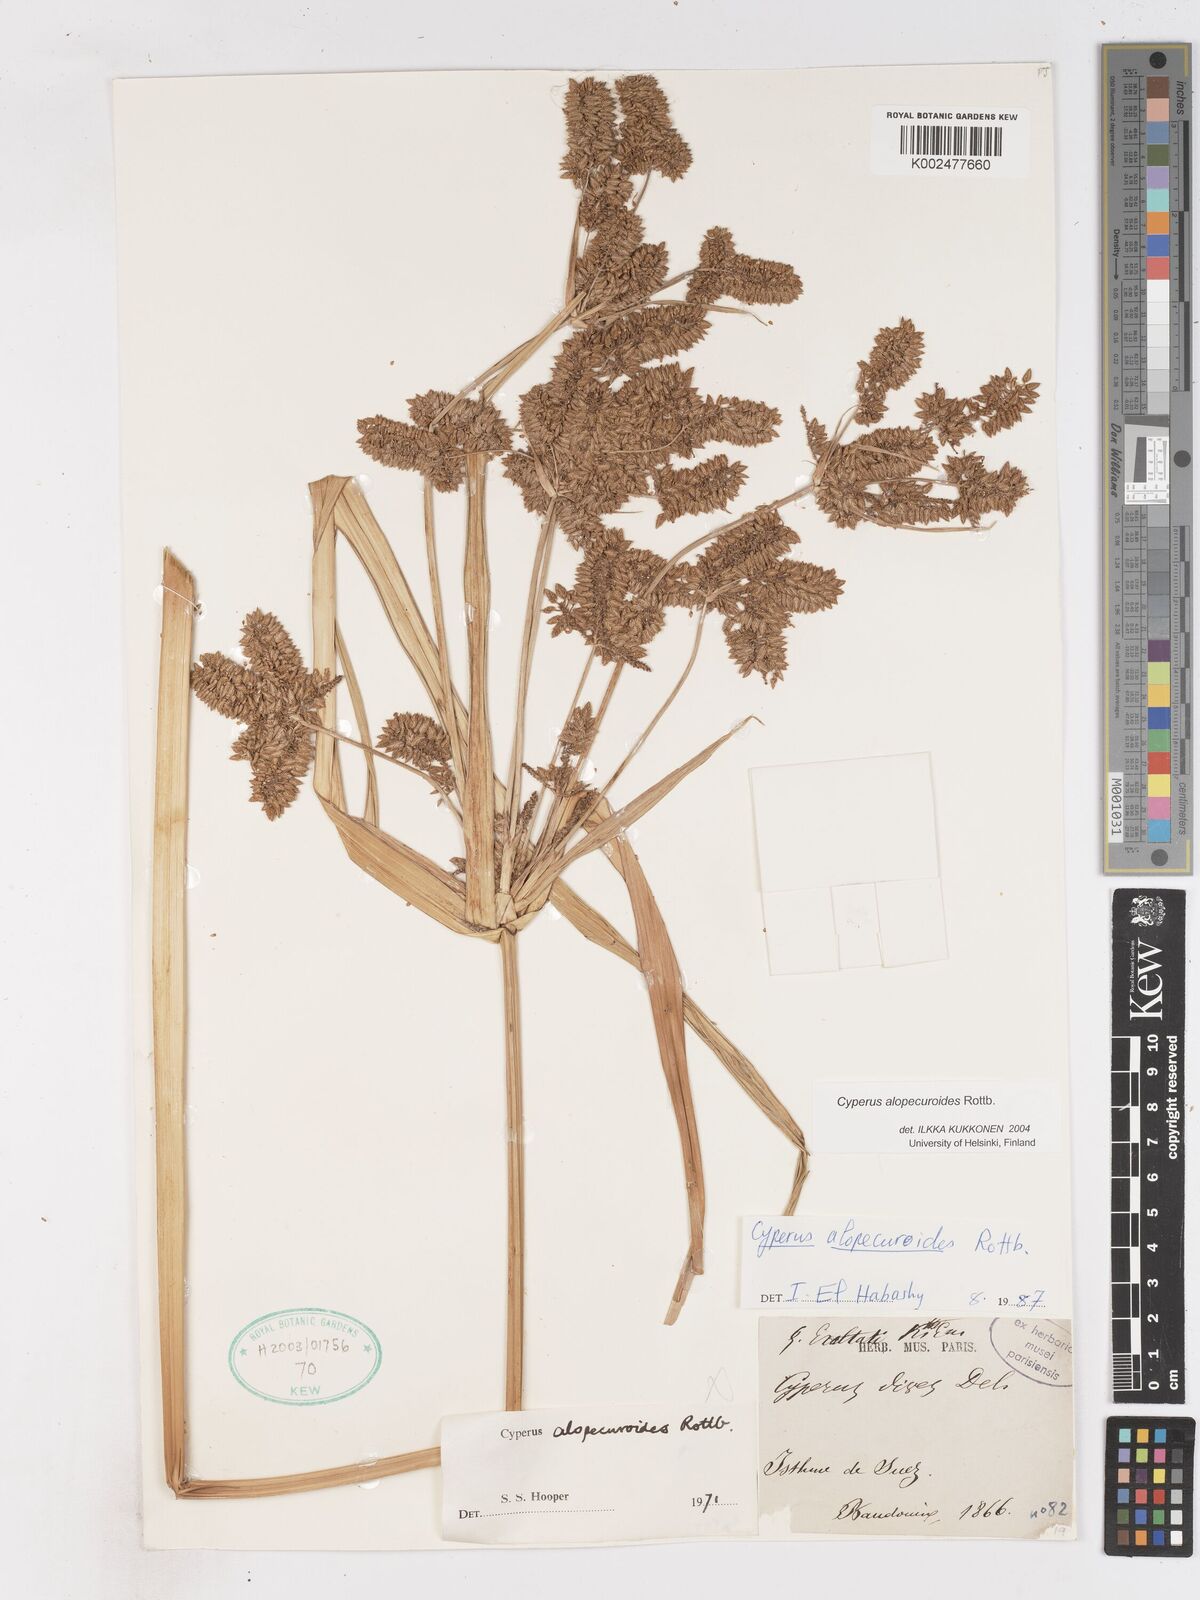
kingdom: Plantae
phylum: Tracheophyta
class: Liliopsida
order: Poales
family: Cyperaceae
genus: Cyperus
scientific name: Cyperus alopecuroides
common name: Foxtail flatsedge
